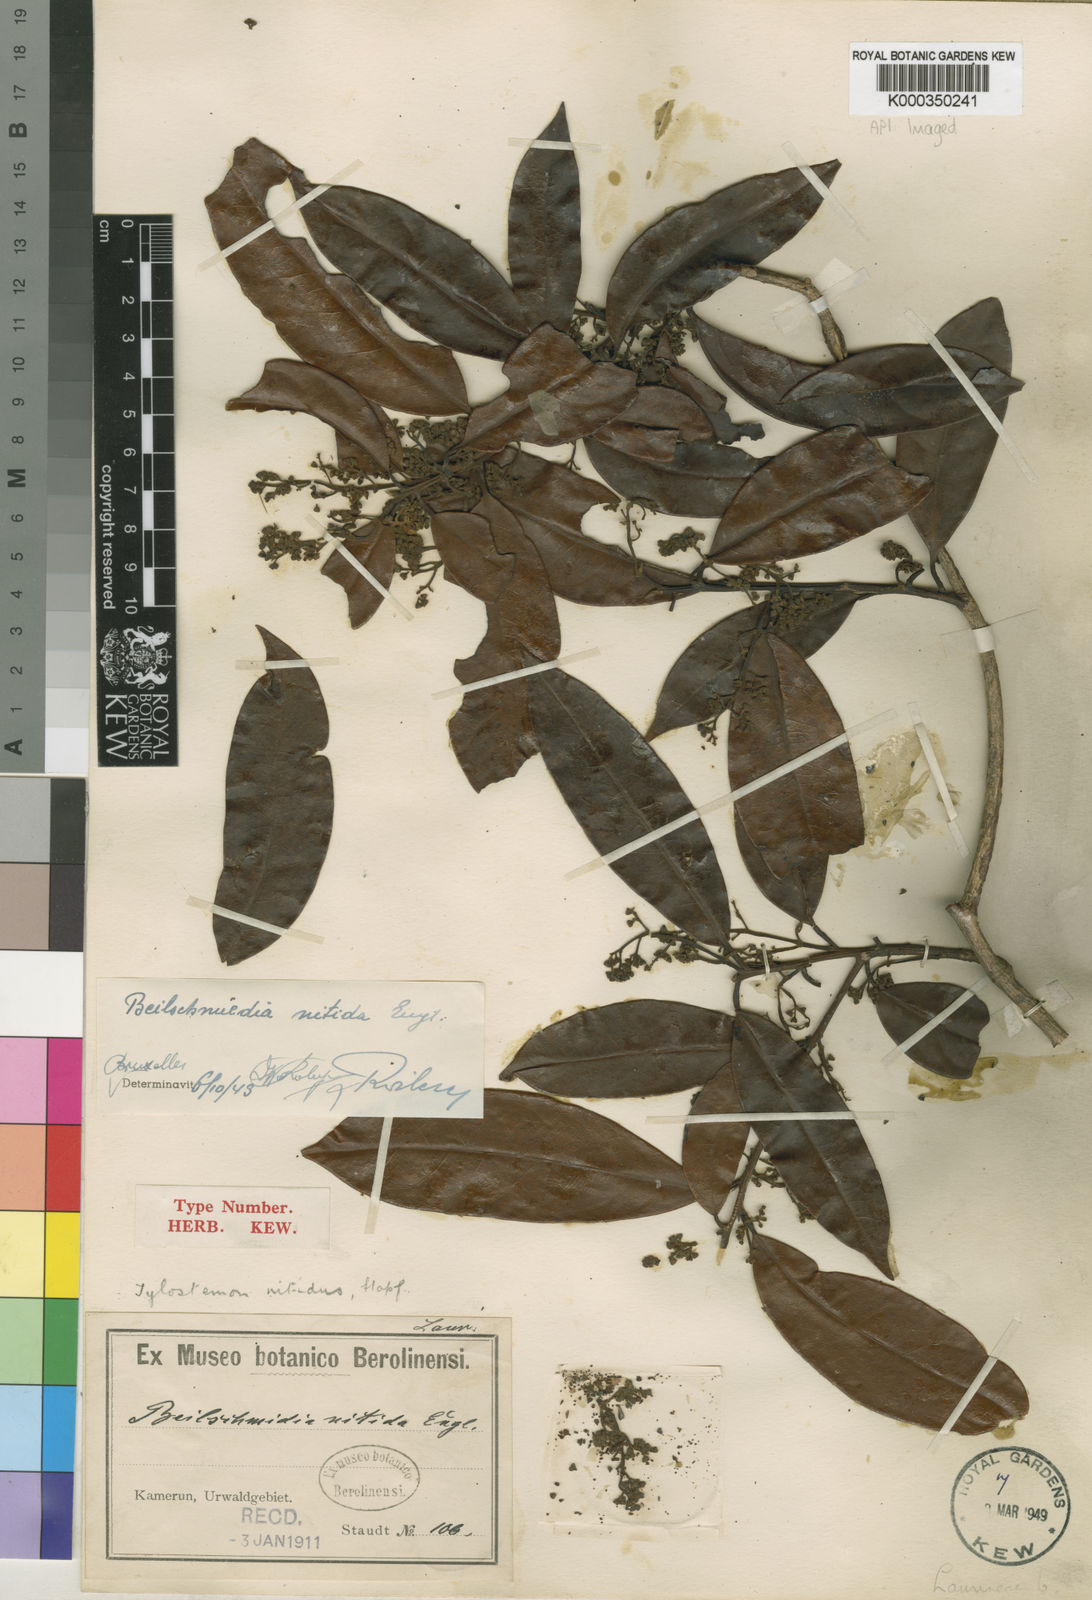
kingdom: Plantae
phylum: Tracheophyta
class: Magnoliopsida
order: Laurales
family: Lauraceae
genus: Beilschmiedia
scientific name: Beilschmiedia nitida
